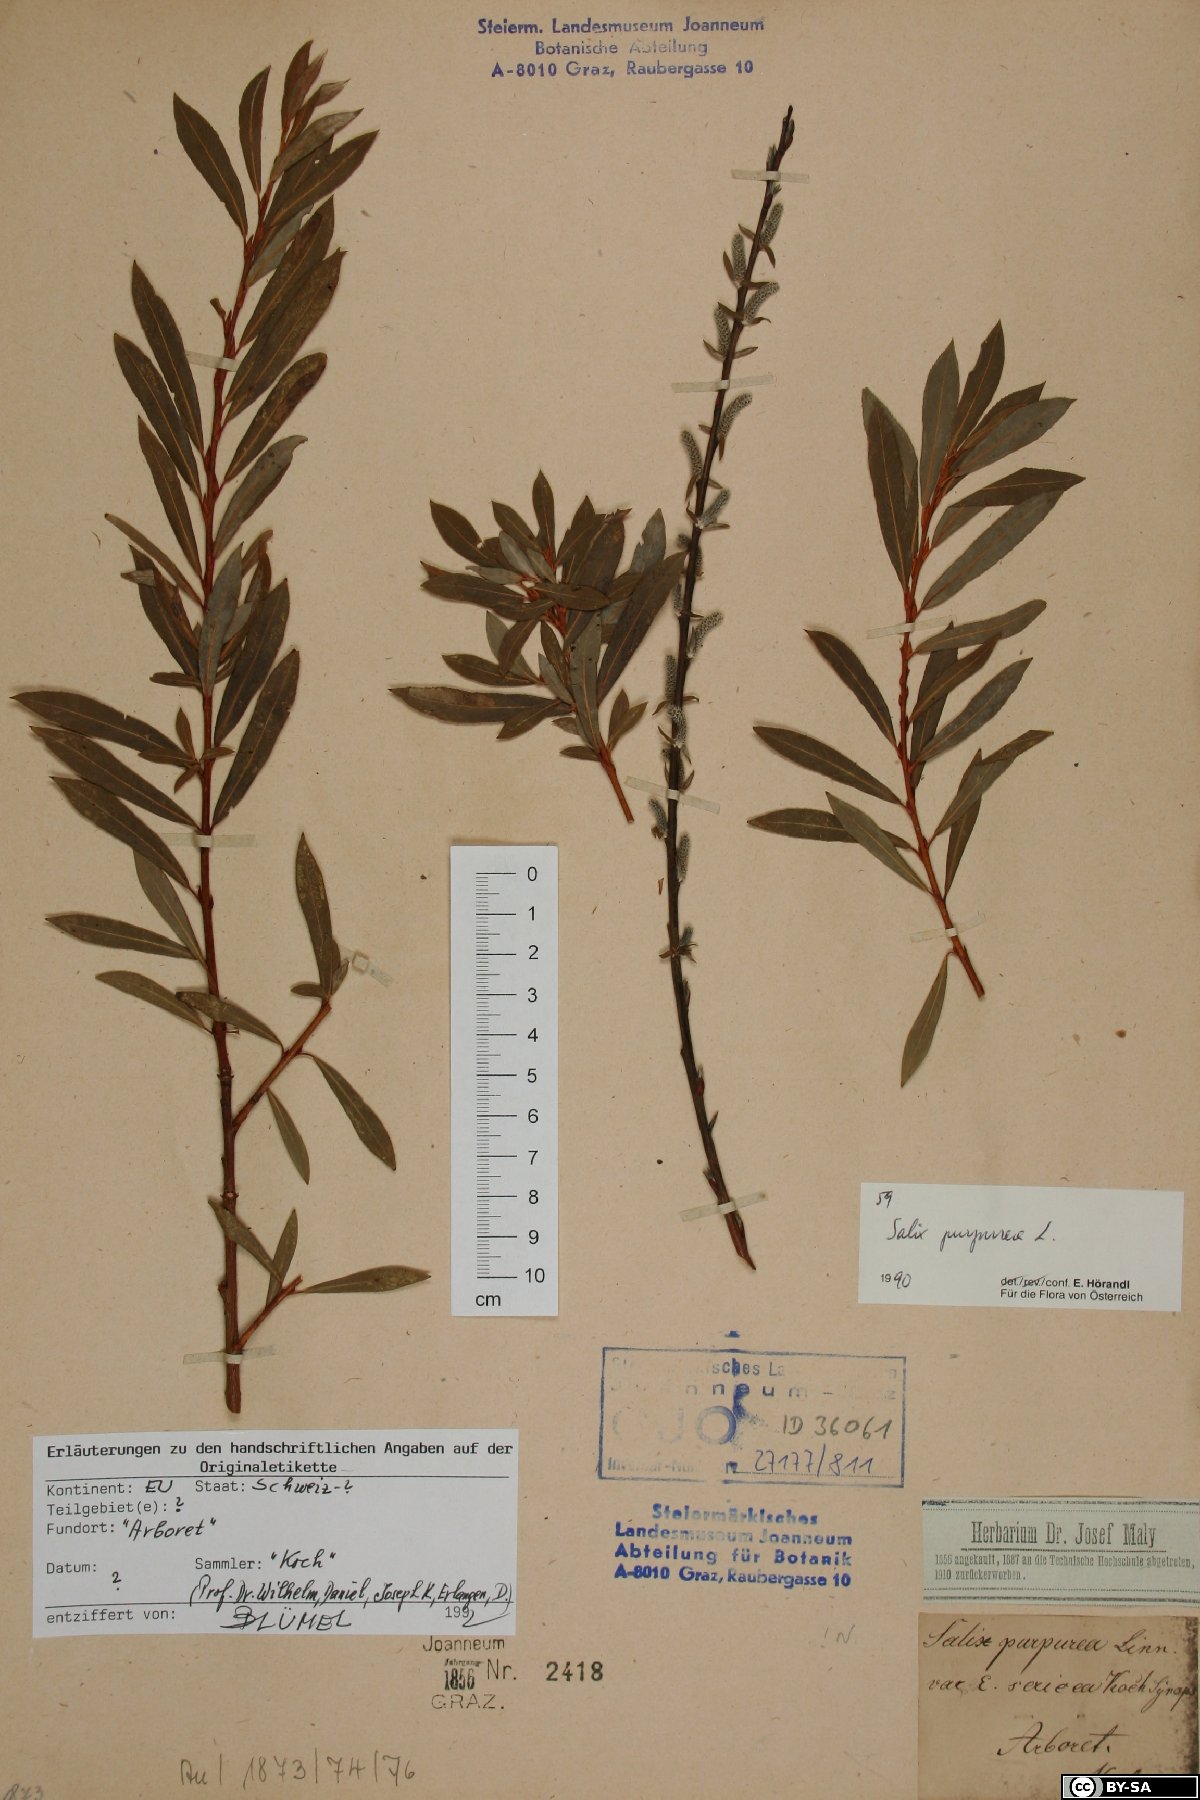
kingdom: Plantae
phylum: Tracheophyta
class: Magnoliopsida
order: Malpighiales
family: Salicaceae
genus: Salix
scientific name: Salix purpurea
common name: Purple willow
